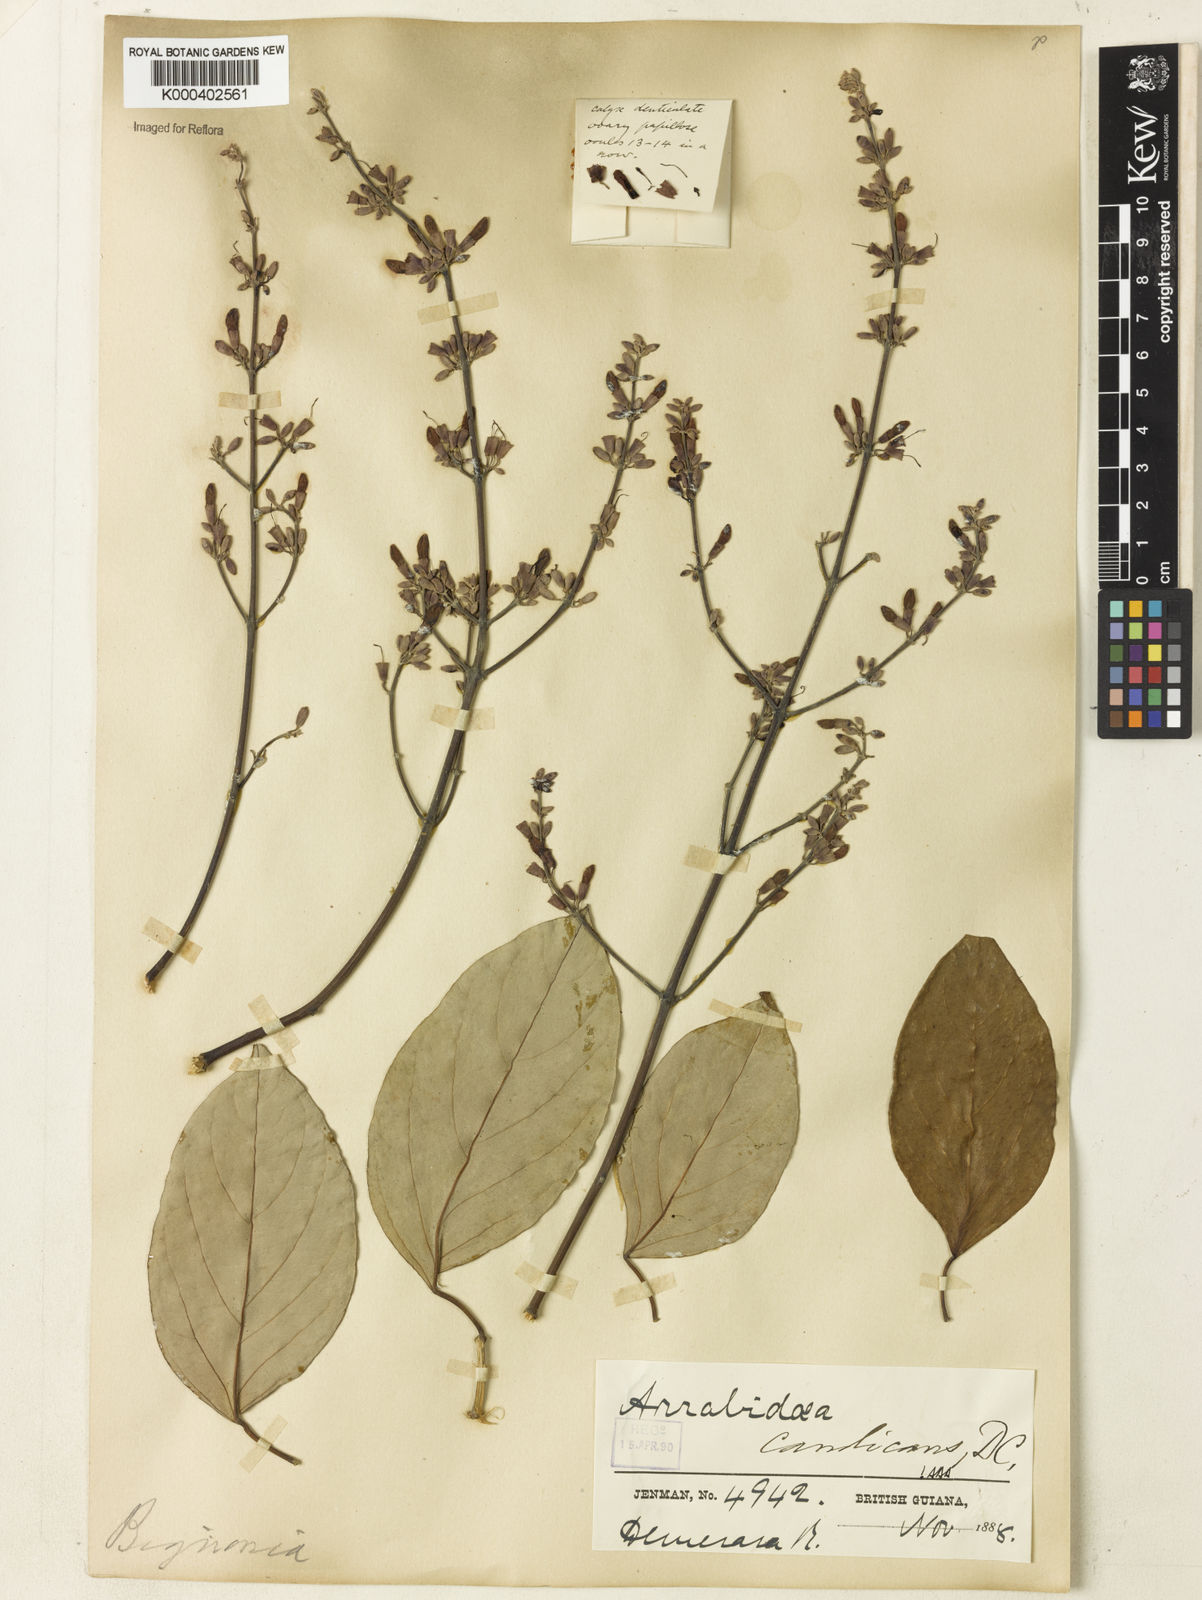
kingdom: Plantae
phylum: Tracheophyta
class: Magnoliopsida
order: Lamiales
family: Bignoniaceae
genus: Fridericia
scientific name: Fridericia candicans
